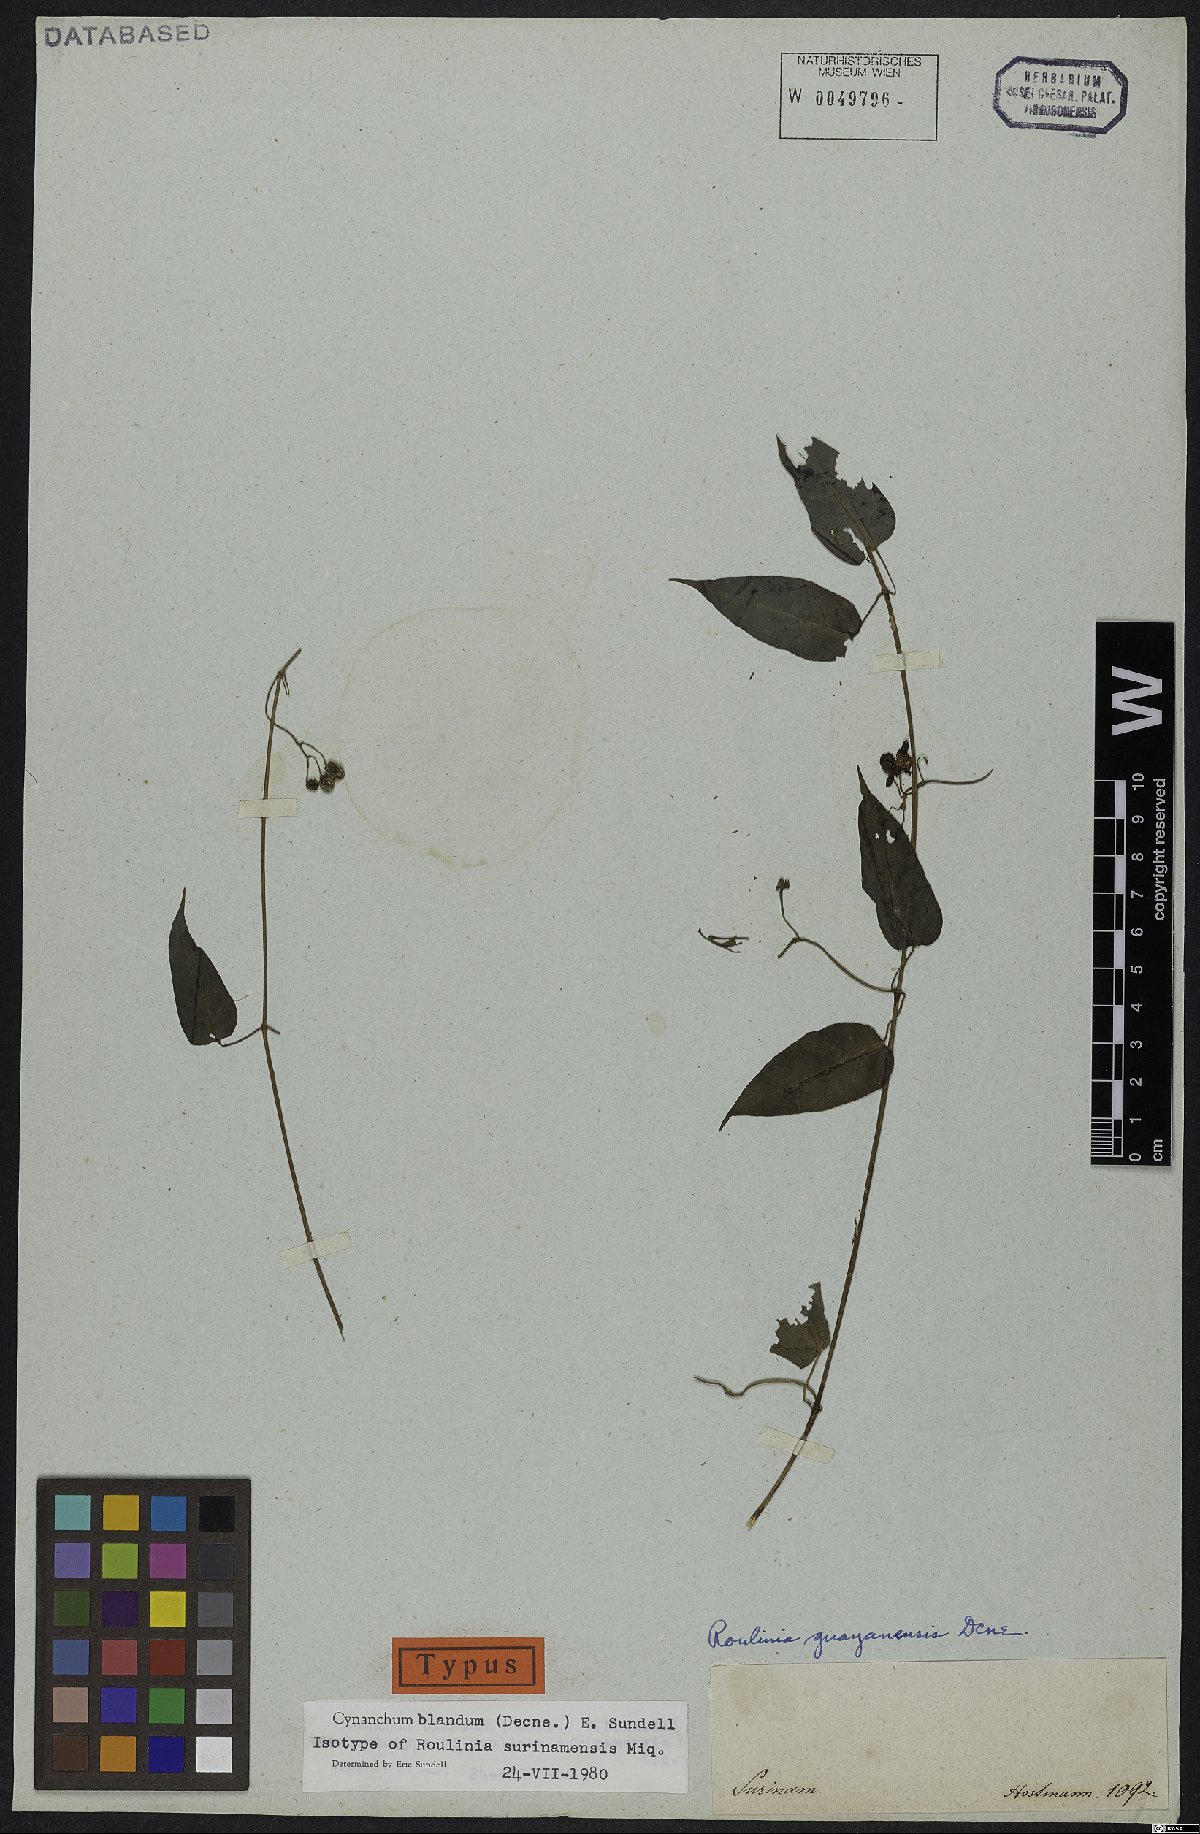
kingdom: Plantae
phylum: Tracheophyta
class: Magnoliopsida
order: Gentianales
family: Apocynaceae
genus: Cynanchum
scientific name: Cynanchum blandum
